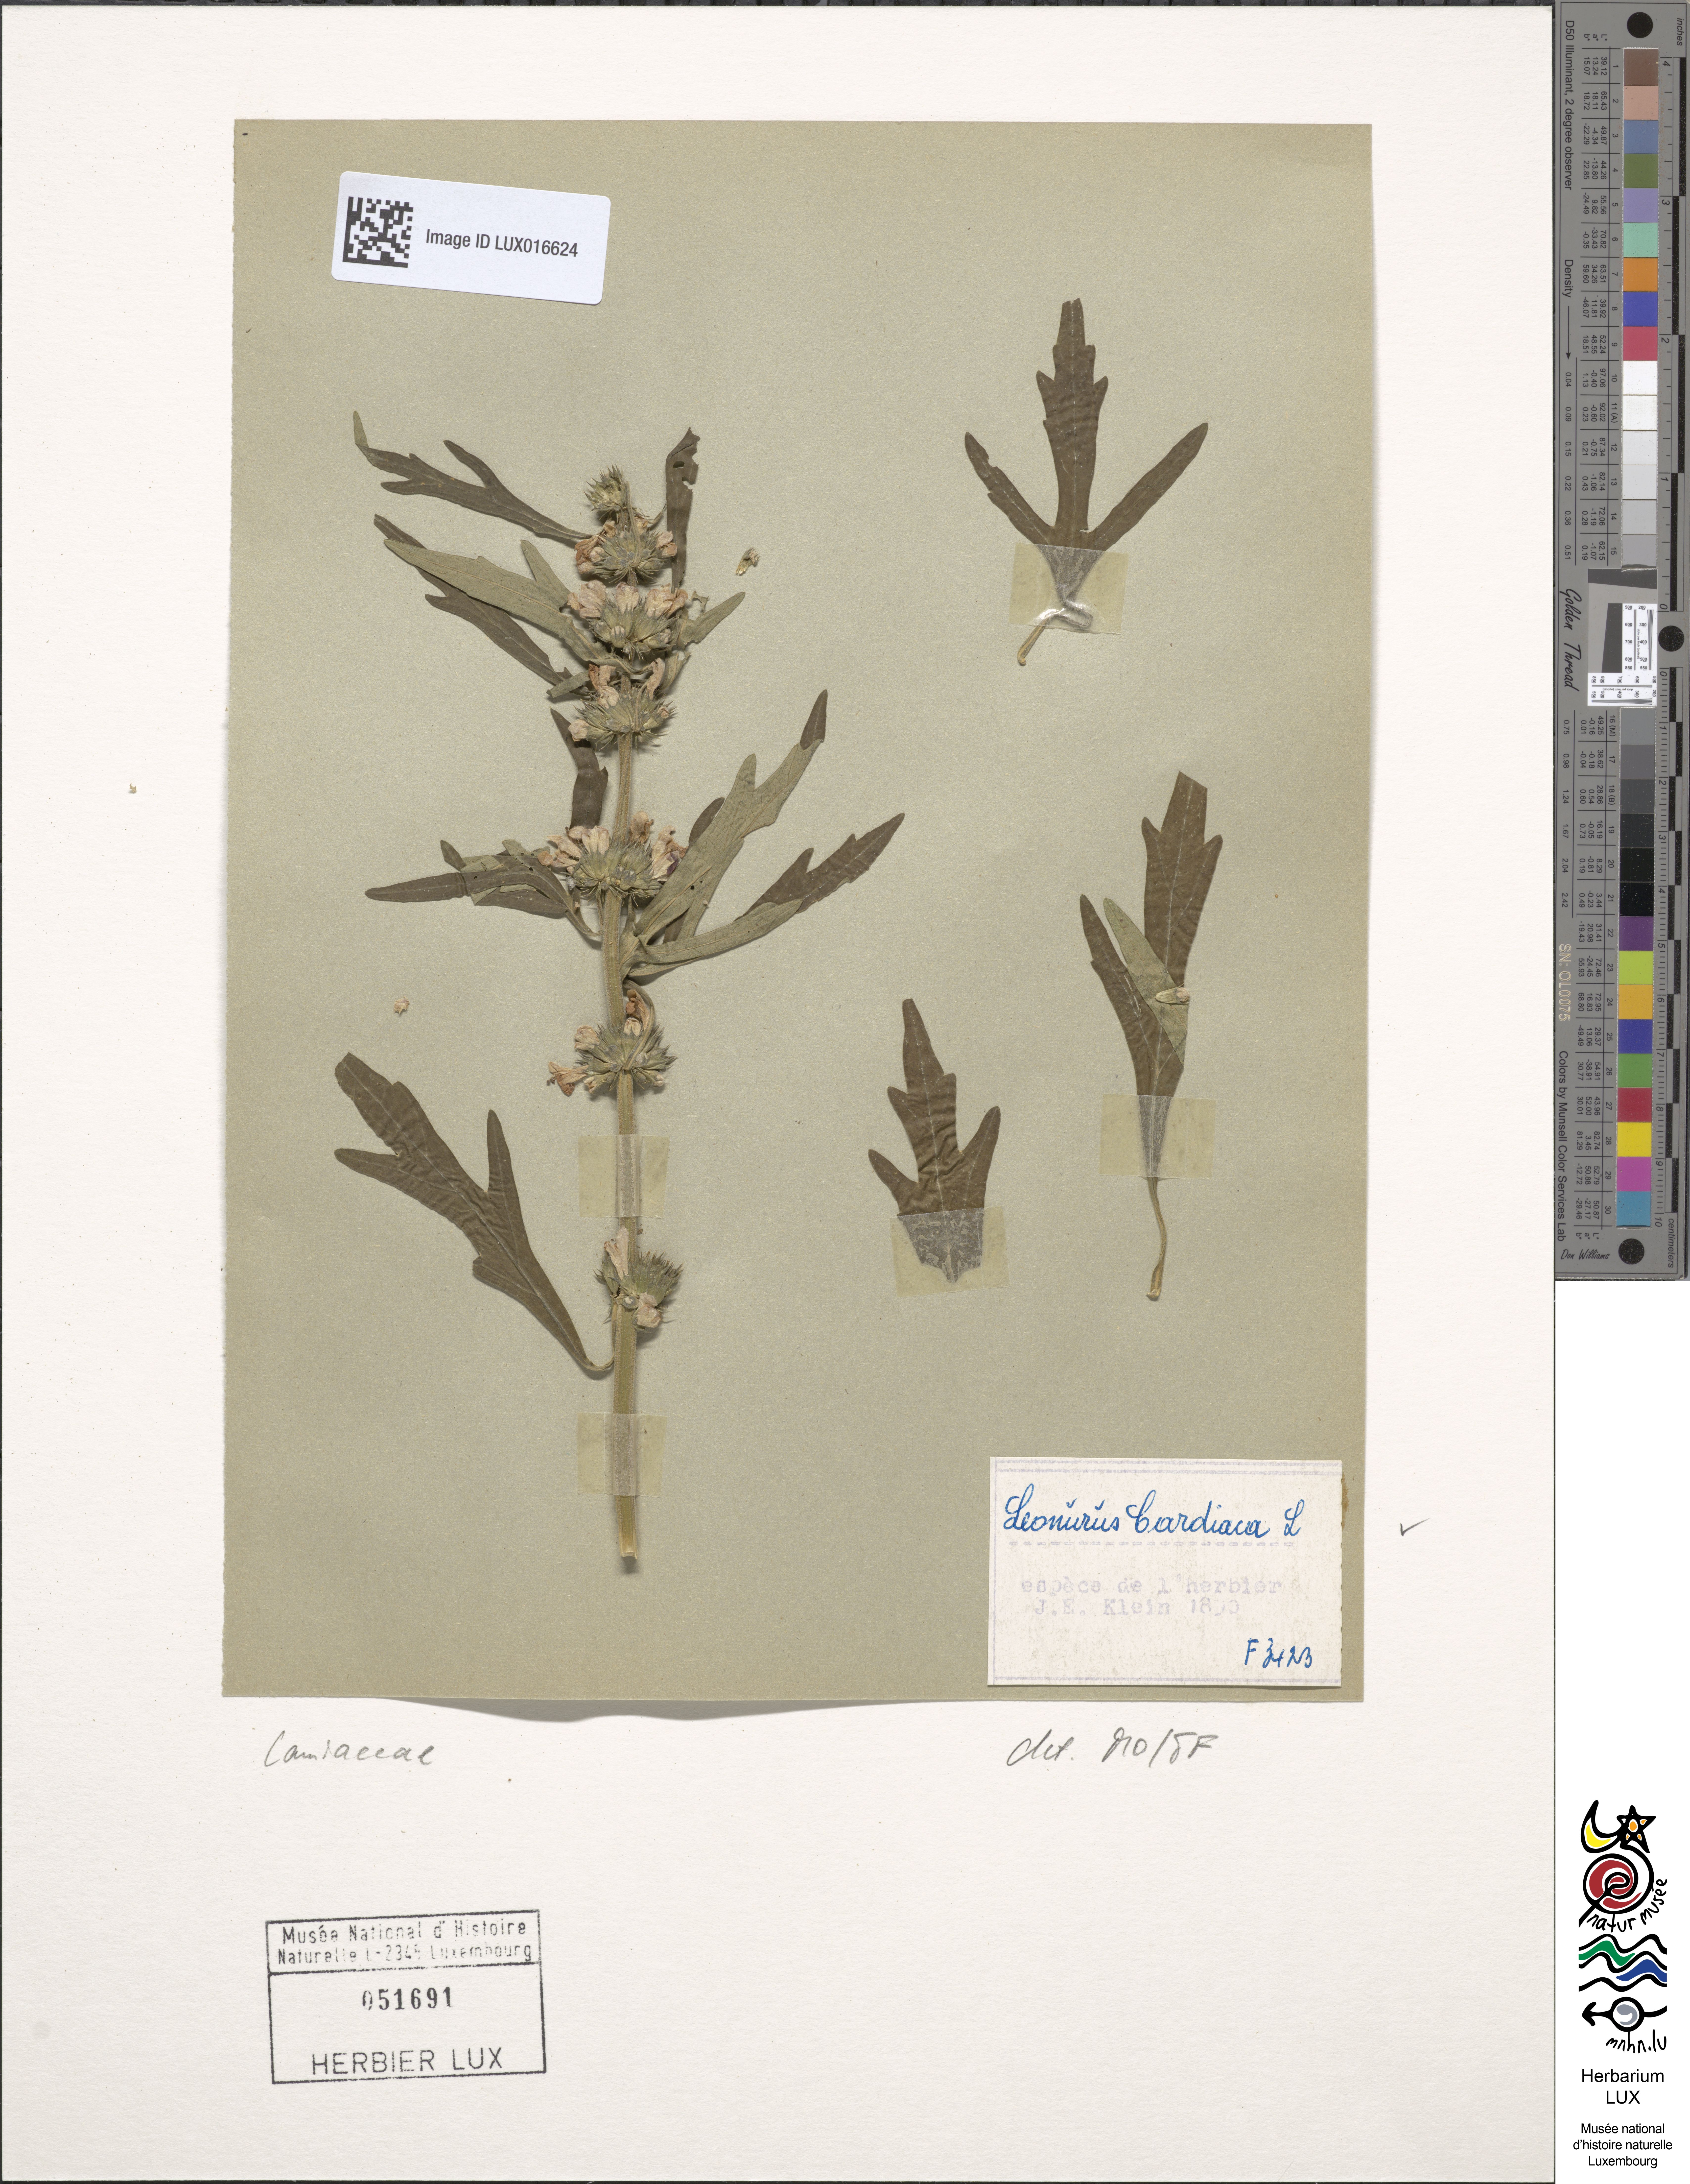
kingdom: Plantae
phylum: Tracheophyta
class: Magnoliopsida
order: Lamiales
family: Lamiaceae
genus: Leonurus
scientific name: Leonurus cardiaca
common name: Motherwort
